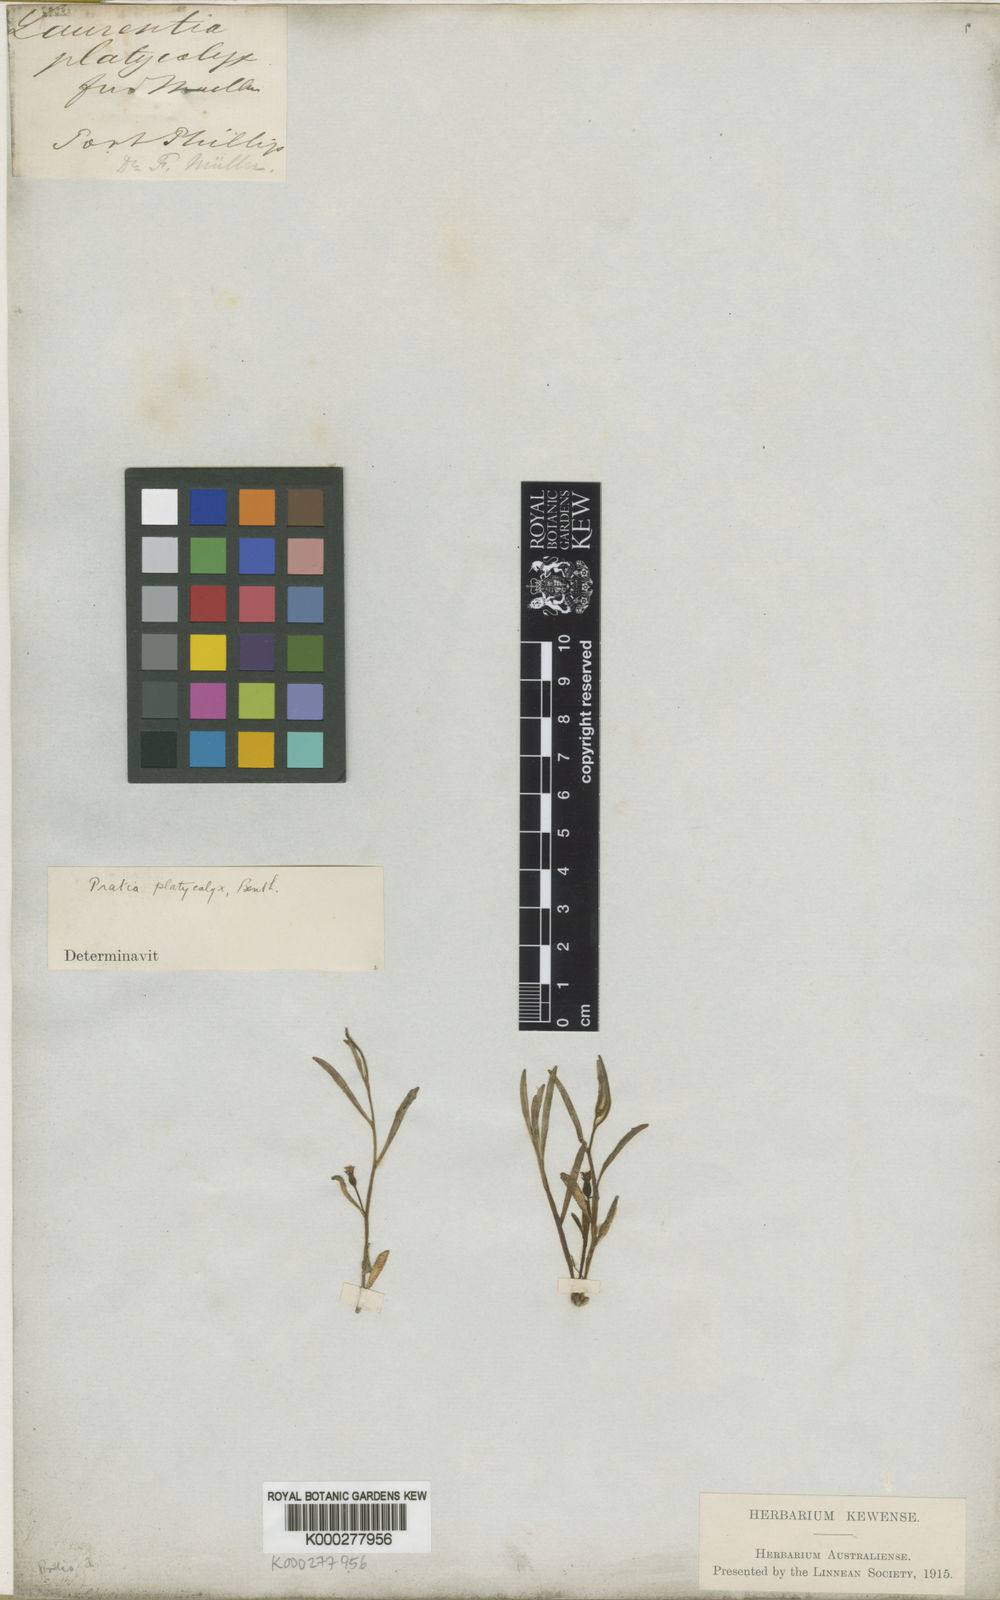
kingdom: Plantae
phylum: Tracheophyta
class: Magnoliopsida
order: Asterales
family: Campanulaceae
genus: Lobelia
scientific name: Lobelia irrigua
